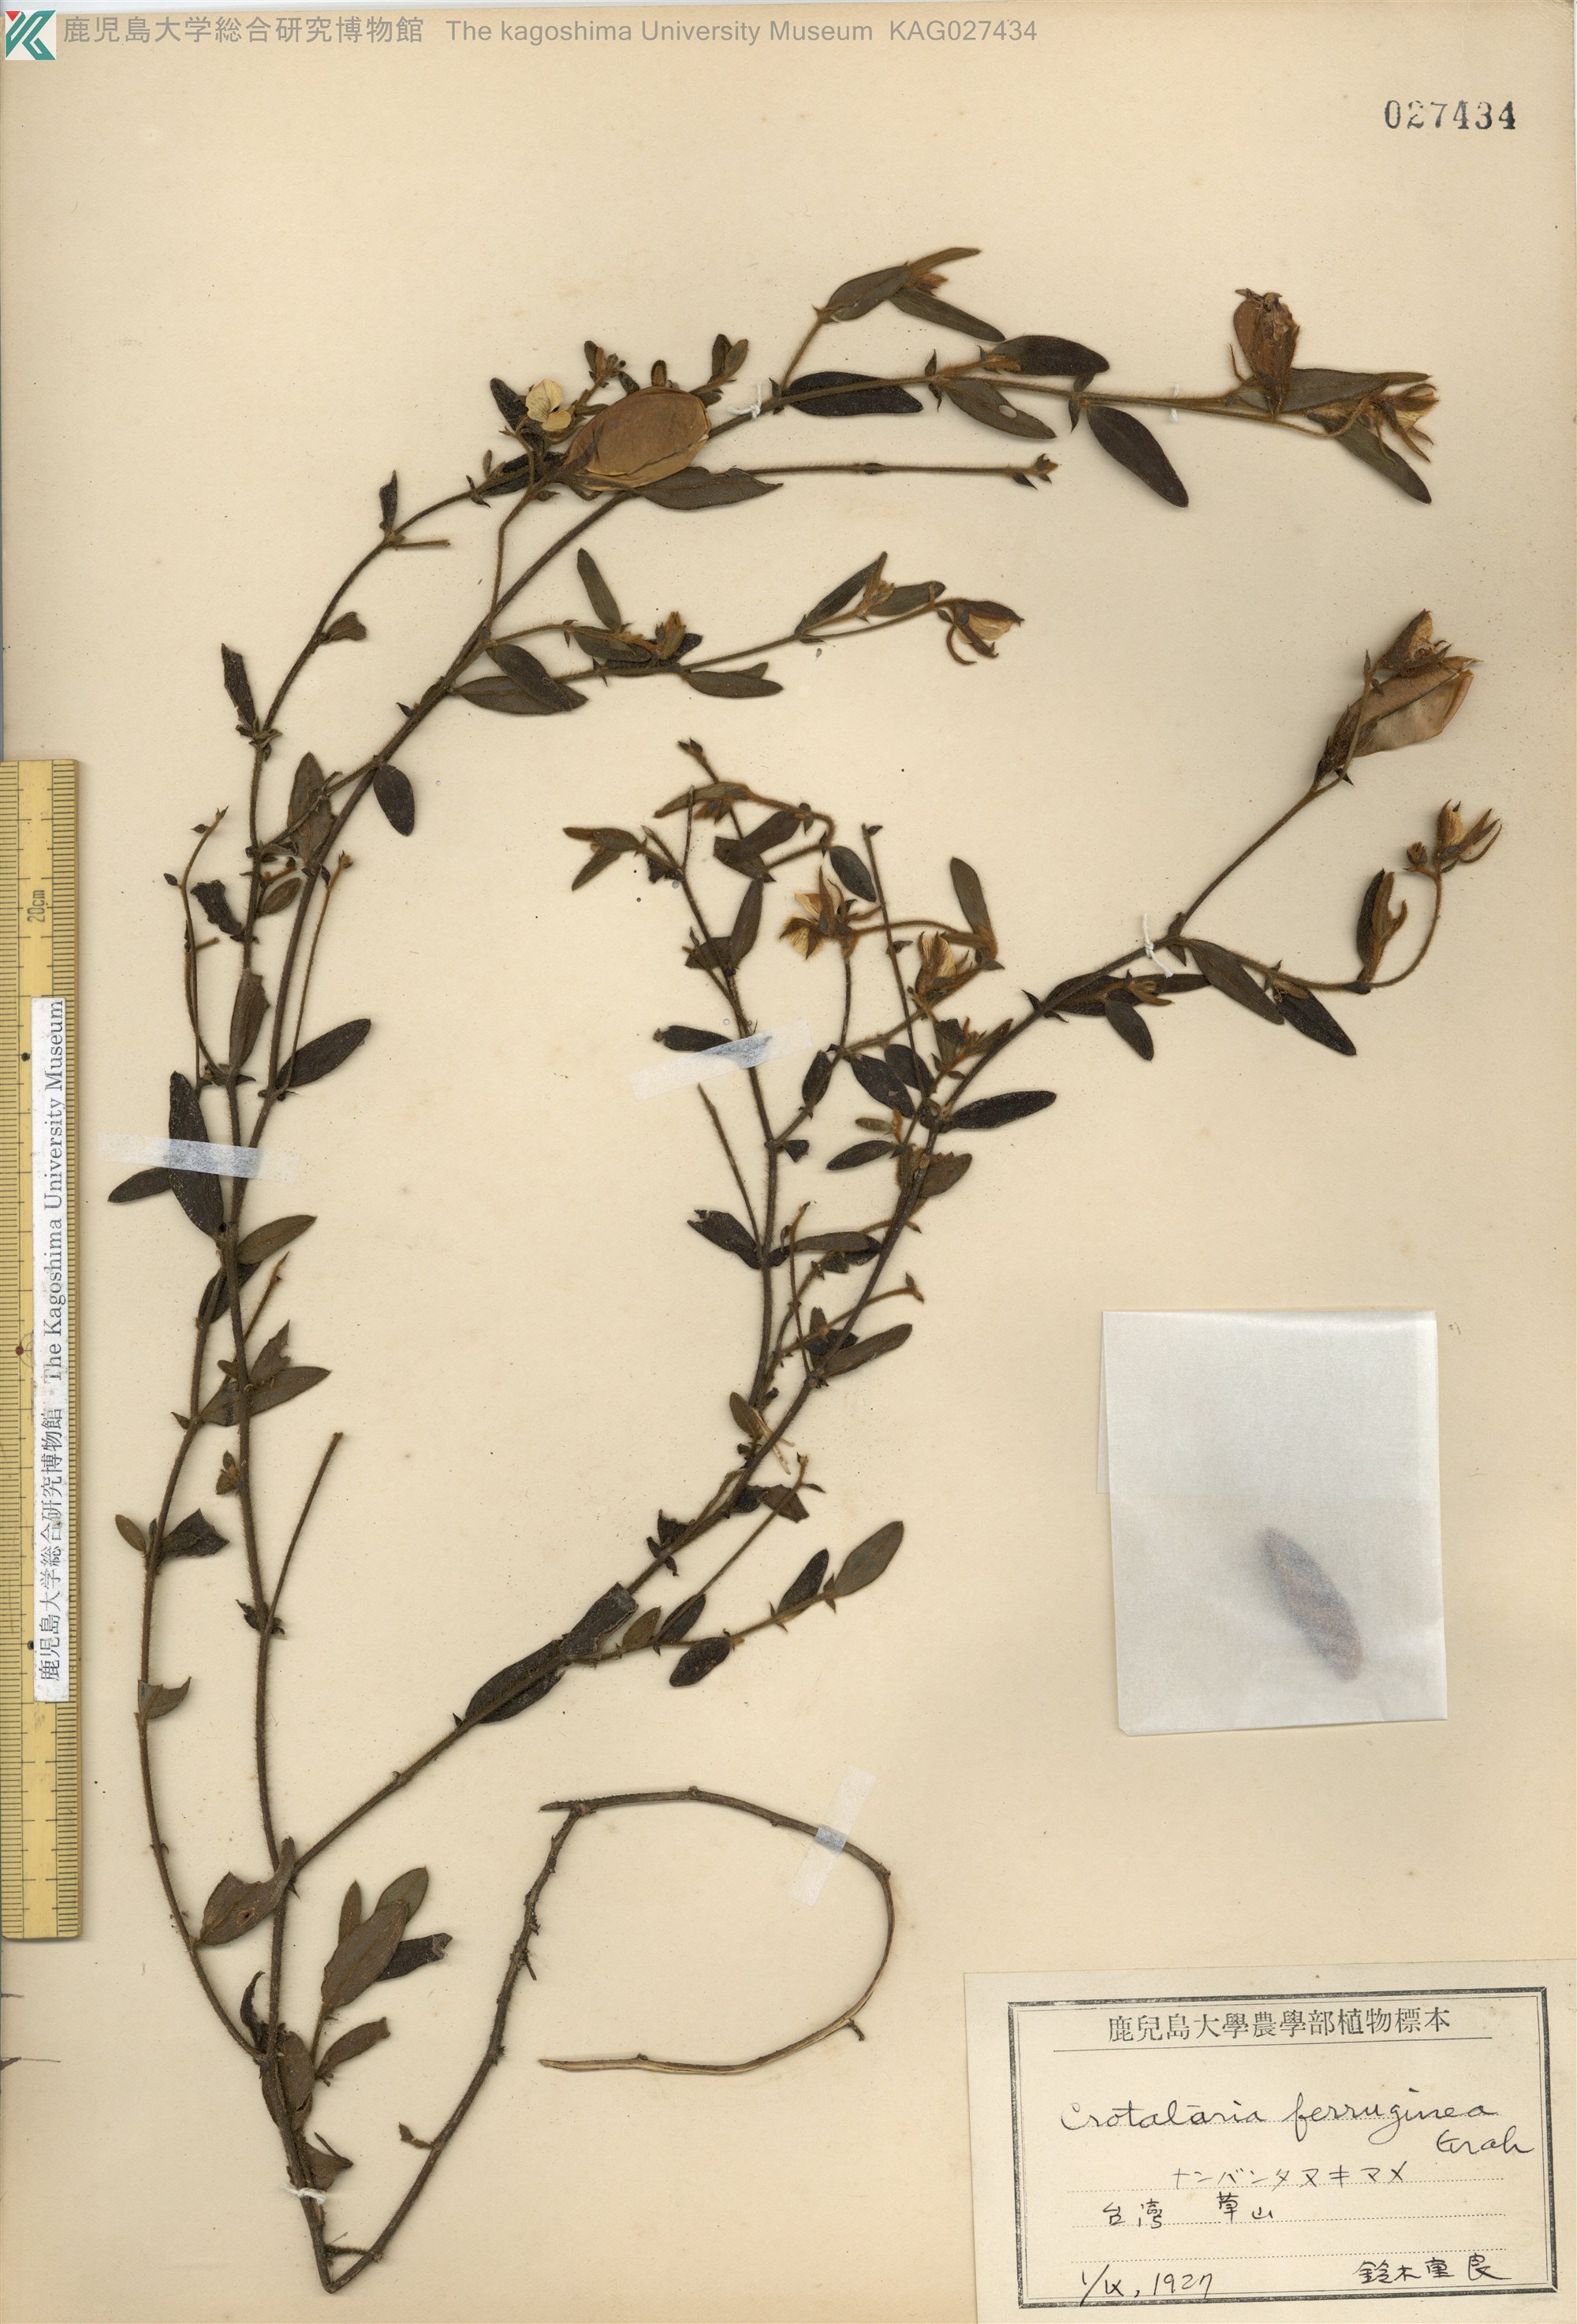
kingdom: Plantae
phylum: Tracheophyta
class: Magnoliopsida
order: Fabales
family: Fabaceae
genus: Crotalaria
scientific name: Crotalaria lejoloba
